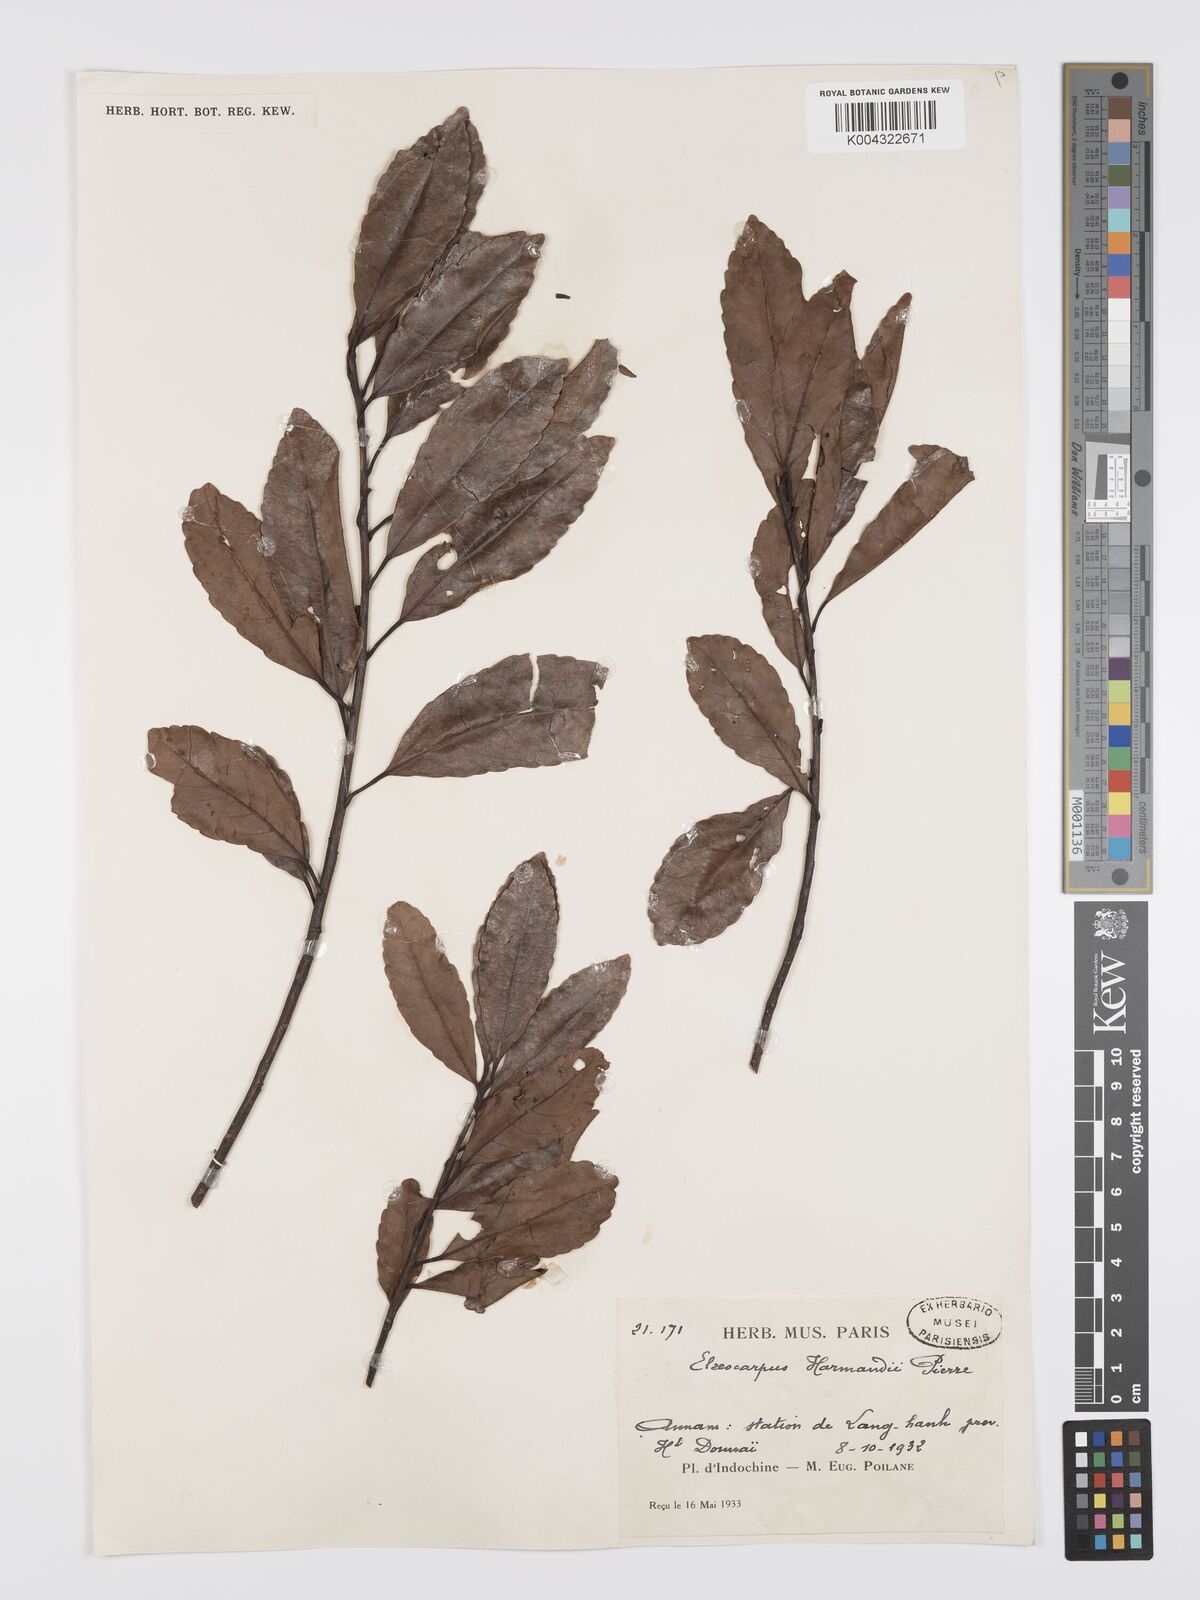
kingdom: Plantae
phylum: Tracheophyta
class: Magnoliopsida
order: Oxalidales
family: Elaeocarpaceae
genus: Elaeocarpus
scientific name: Elaeocarpus harmandii
